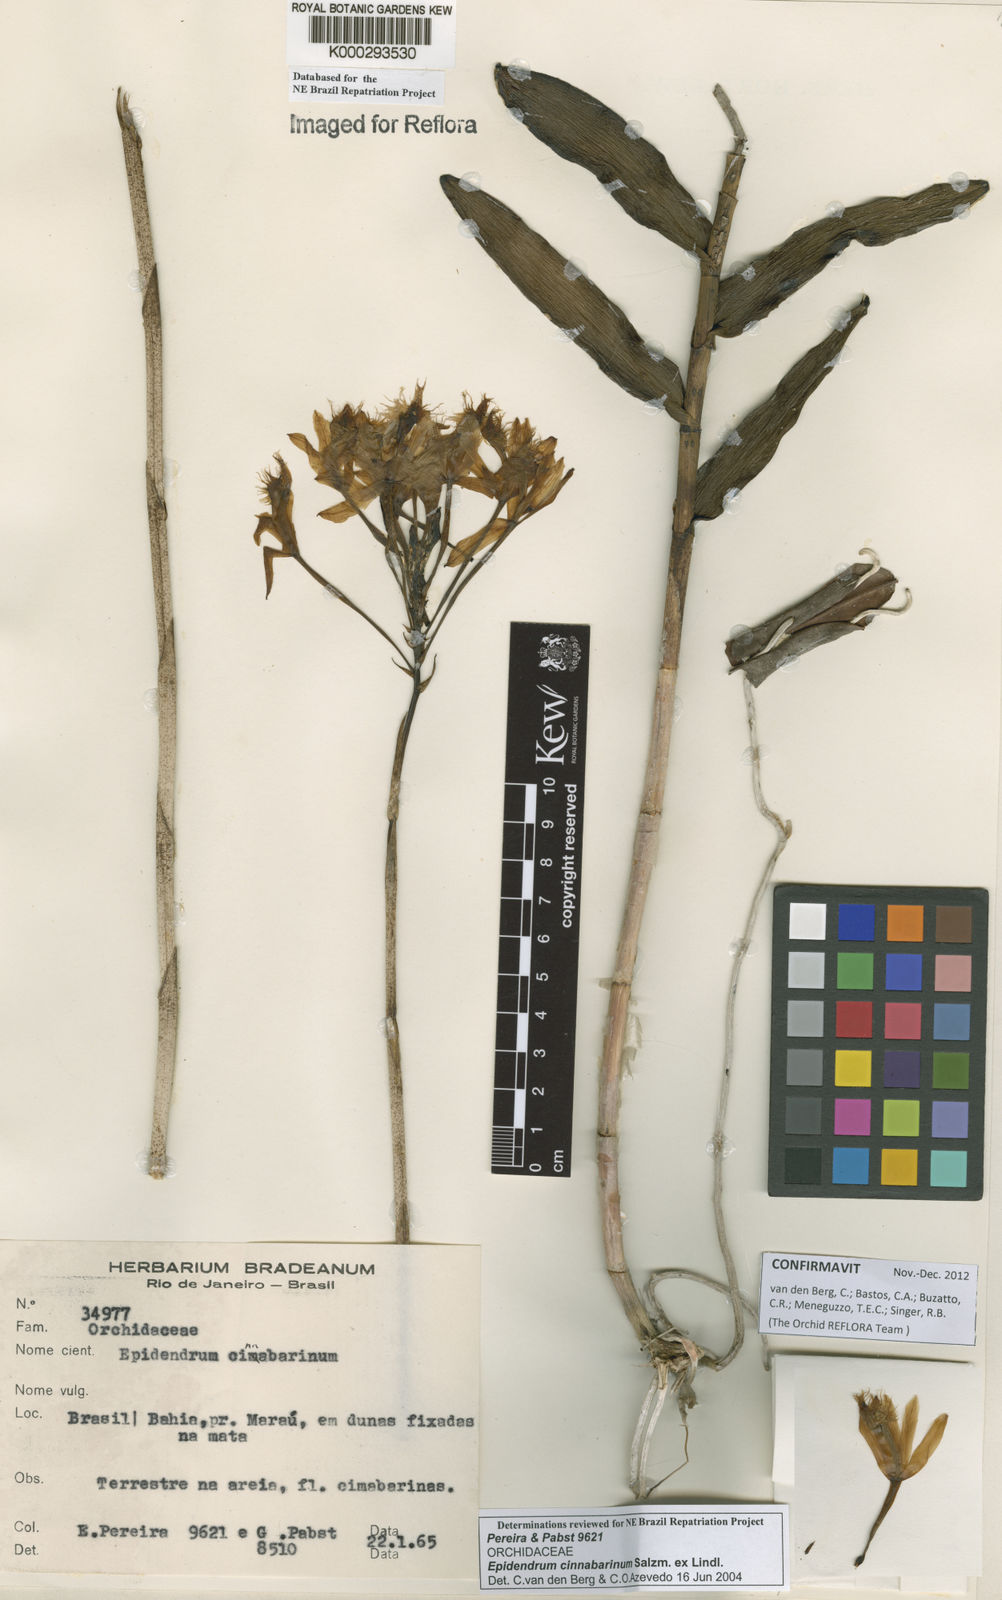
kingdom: Plantae
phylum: Tracheophyta
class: Liliopsida
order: Asparagales
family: Orchidaceae
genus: Epidendrum
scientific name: Epidendrum cinnabarinum
